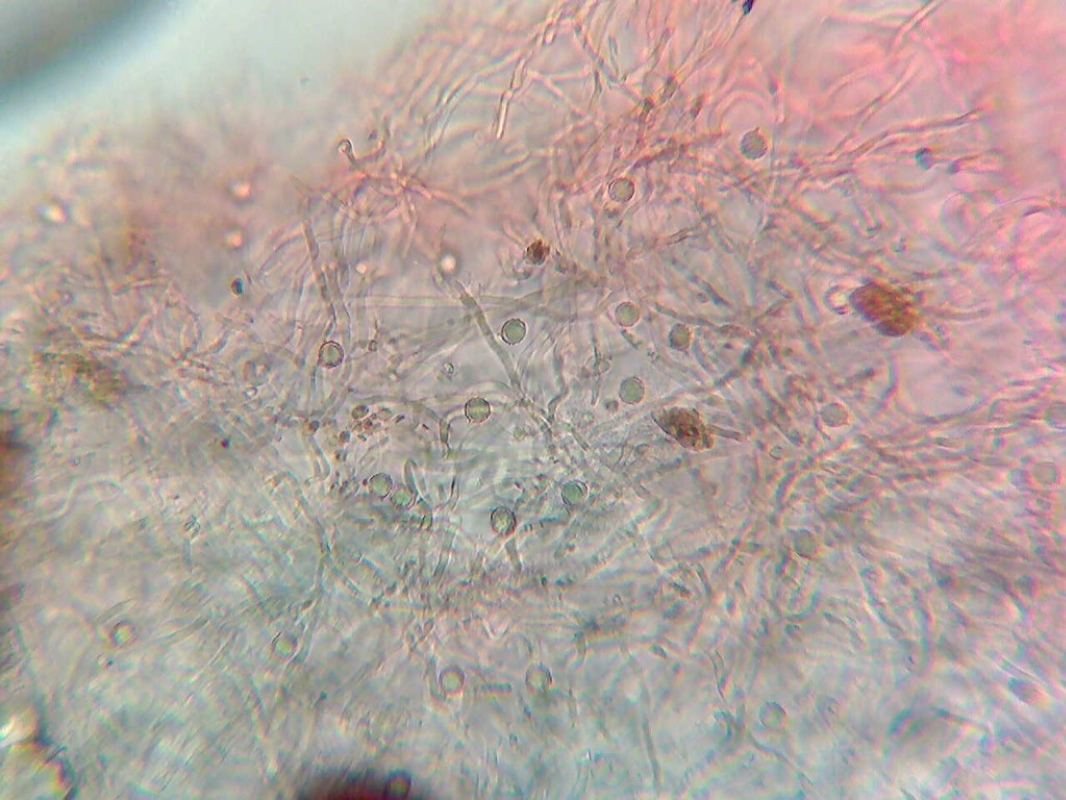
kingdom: Fungi
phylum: Basidiomycota
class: Agaricomycetes
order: Russulales
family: Russulaceae
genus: Russula
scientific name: Russula flavispora
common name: gulsporet tragt-skørhat
